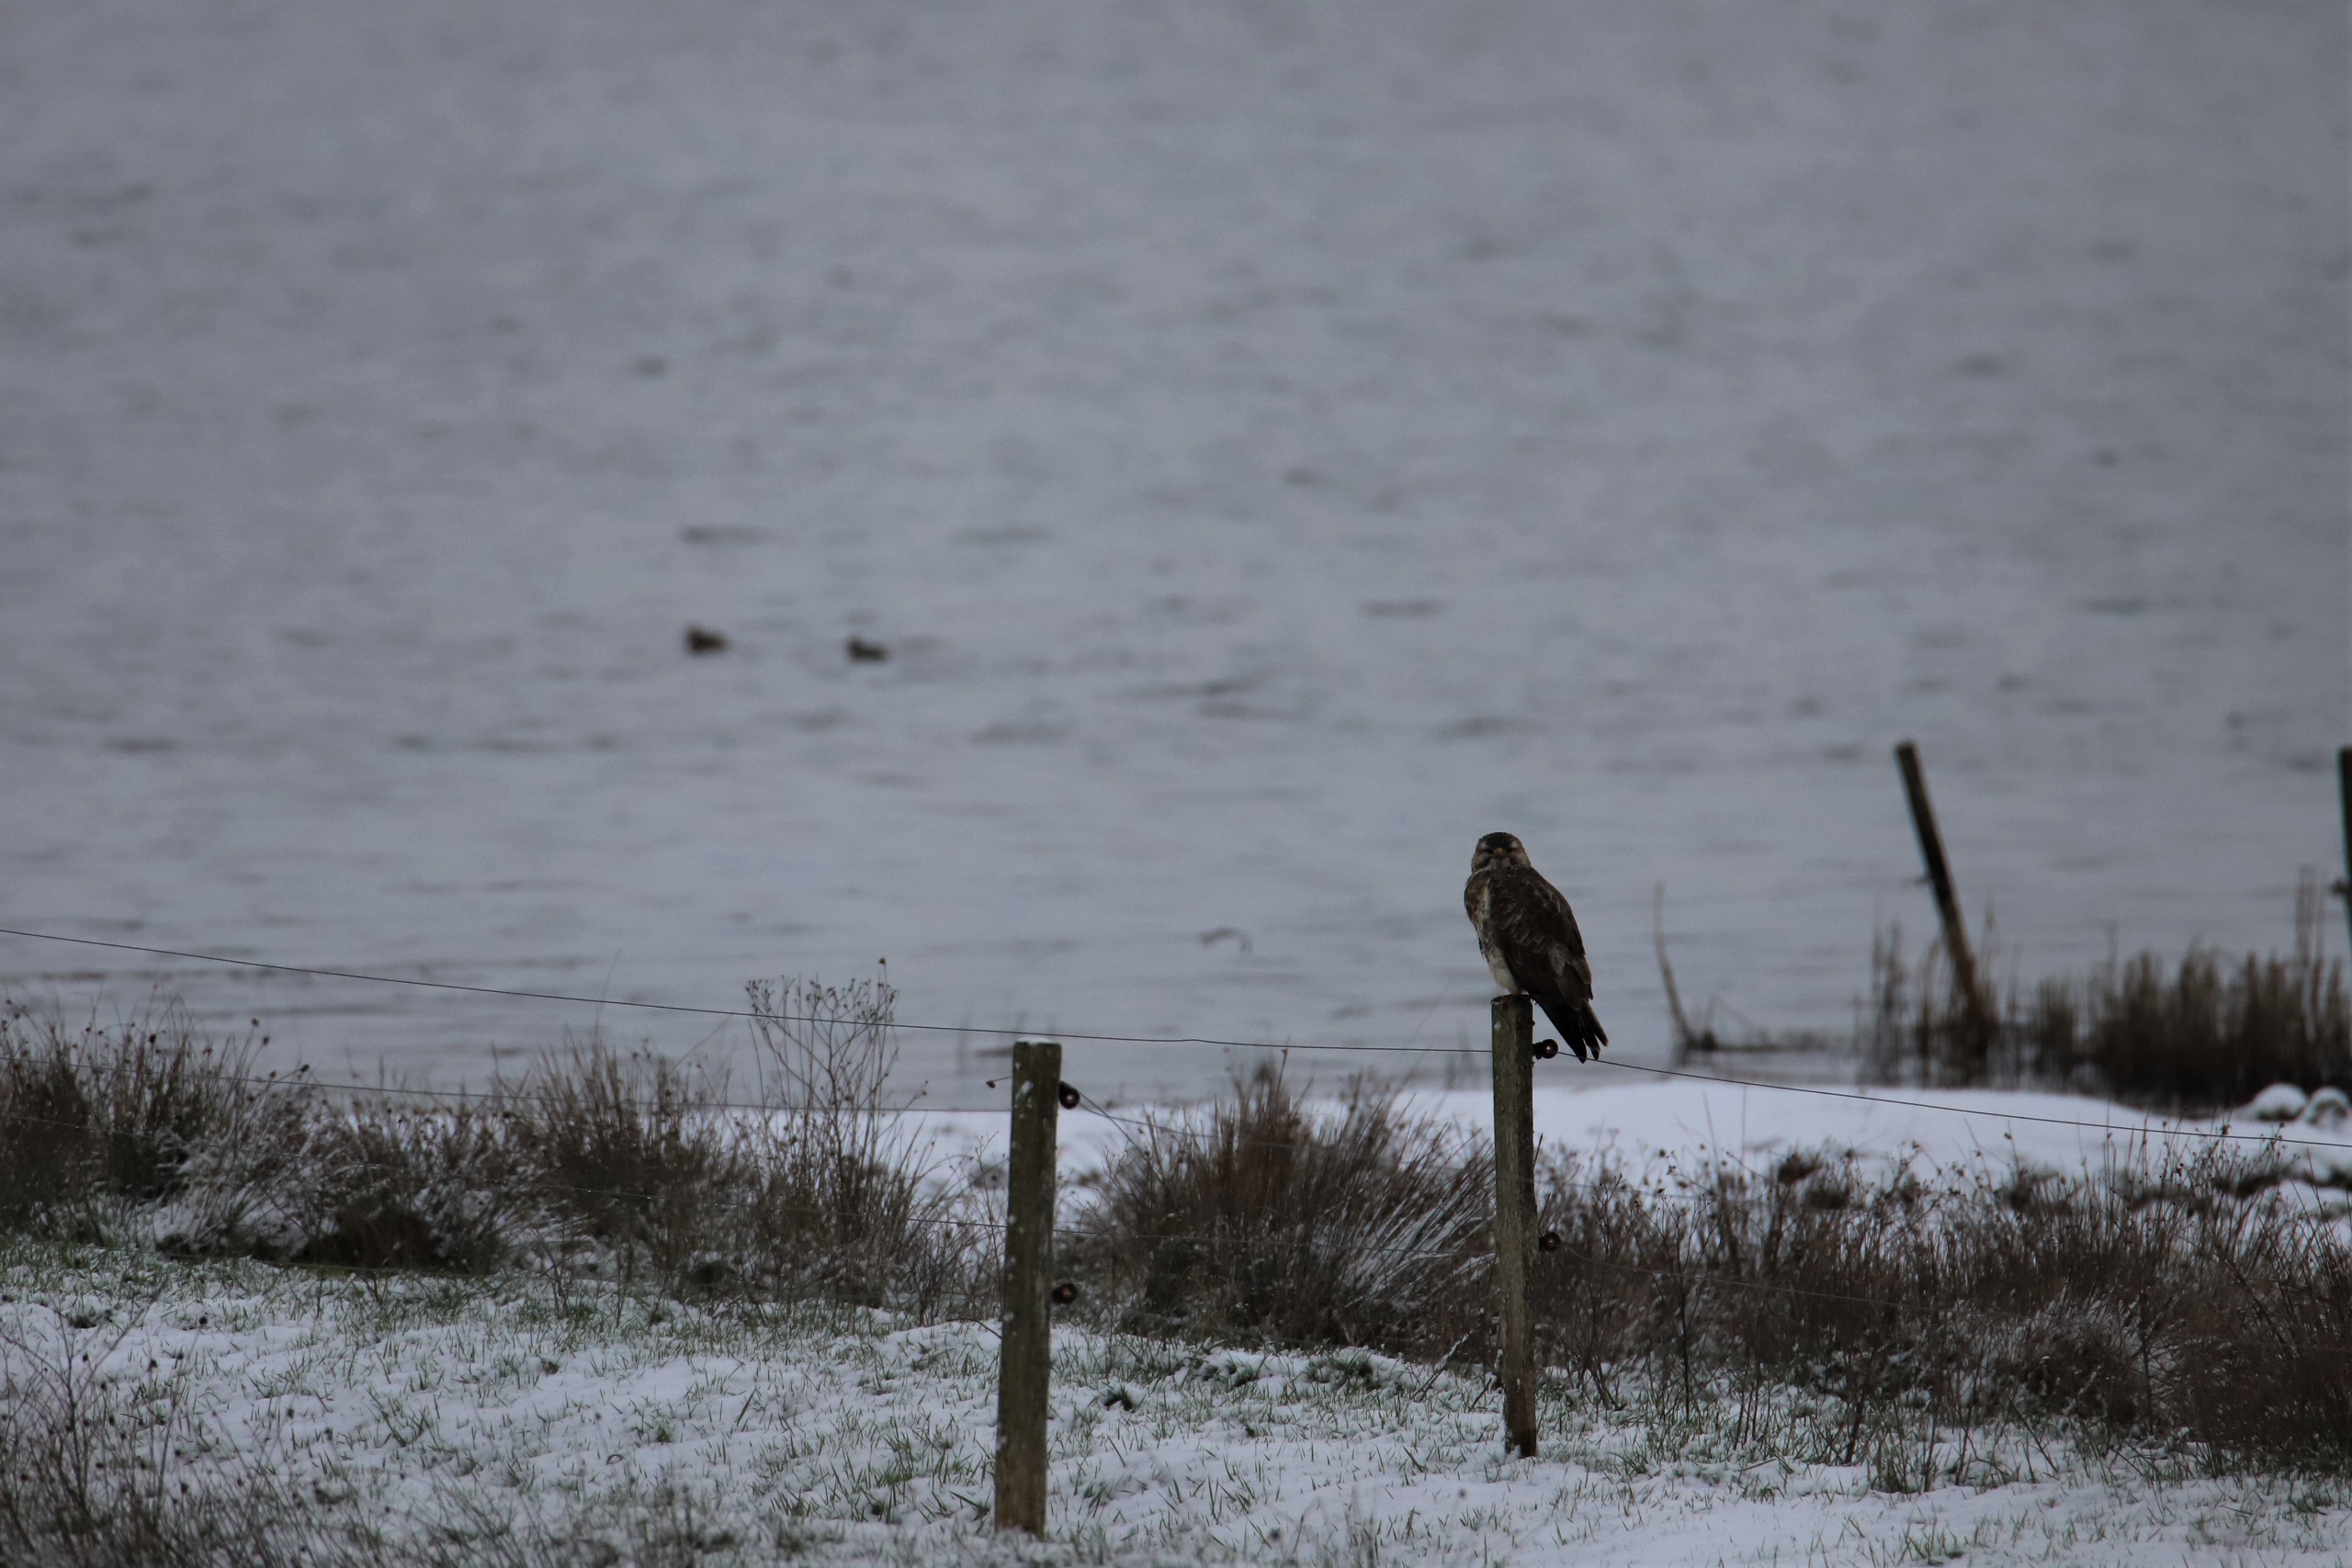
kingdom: Animalia
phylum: Chordata
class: Aves
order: Accipitriformes
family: Accipitridae
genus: Buteo
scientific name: Buteo buteo
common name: Musvåge
